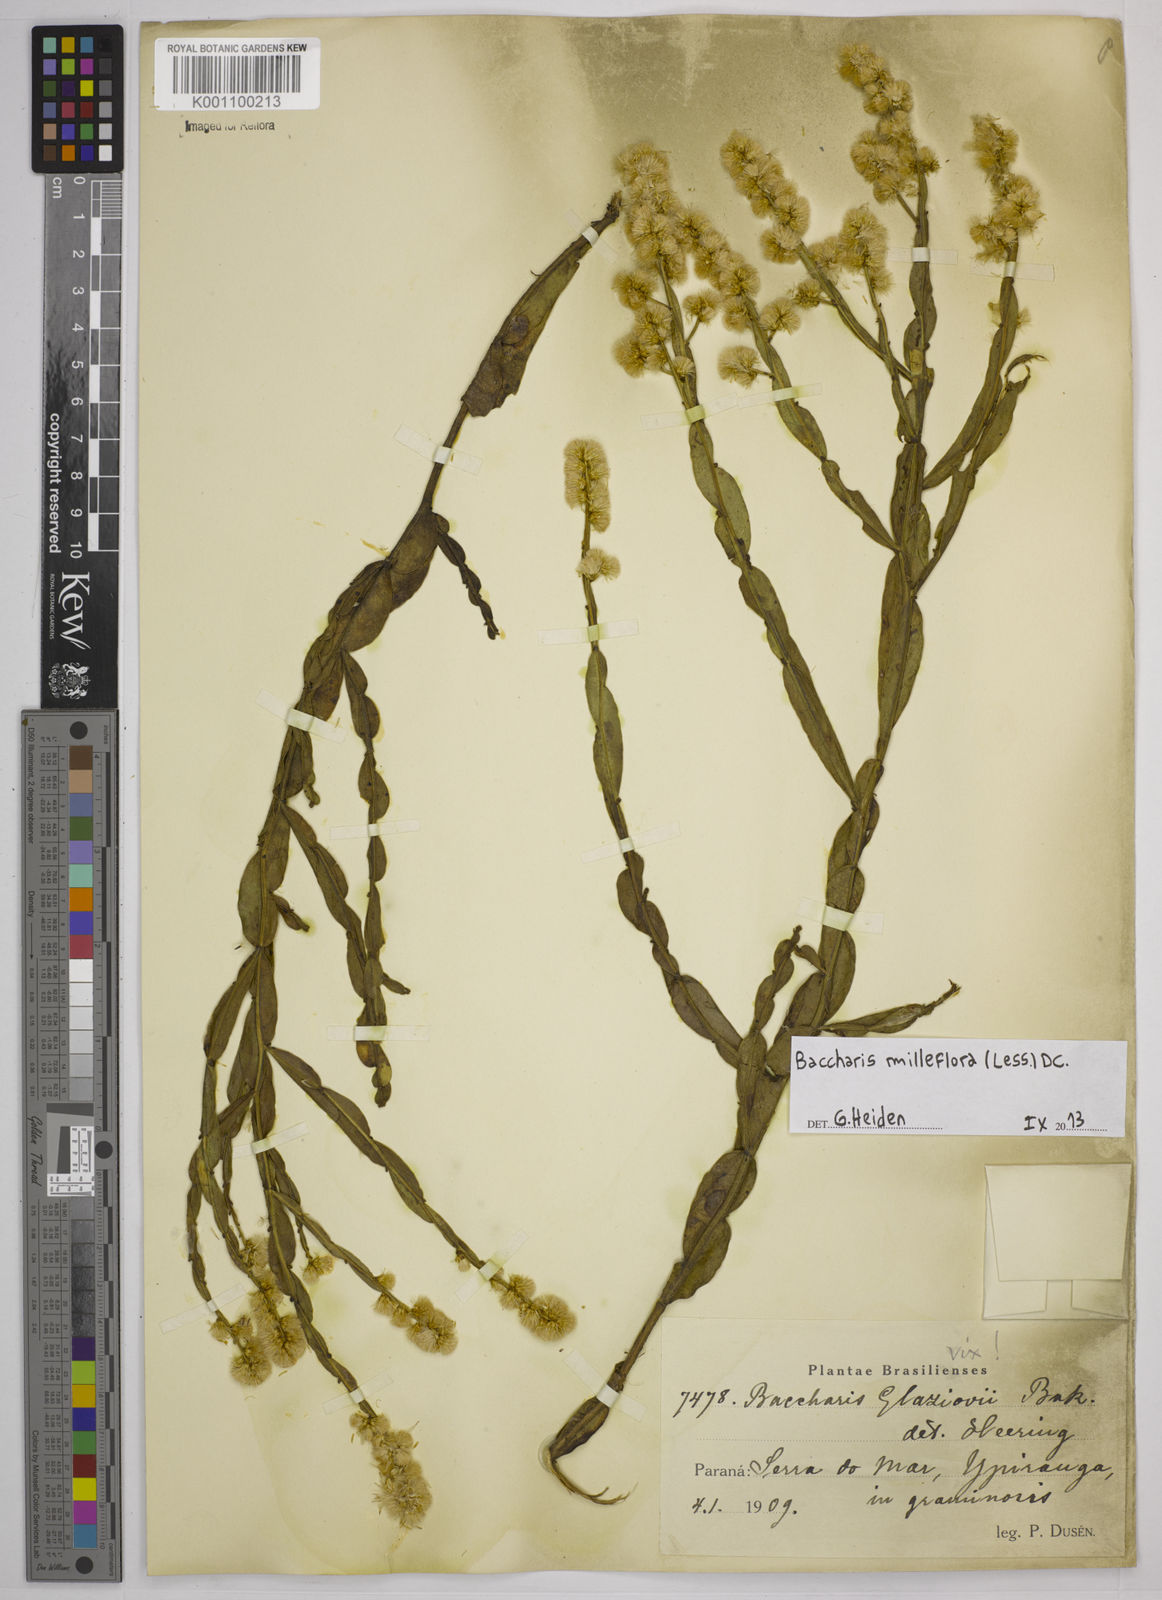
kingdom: Plantae
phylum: Tracheophyta
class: Magnoliopsida
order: Asterales
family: Asteraceae
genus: Baccharis
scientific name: Baccharis milleflora
